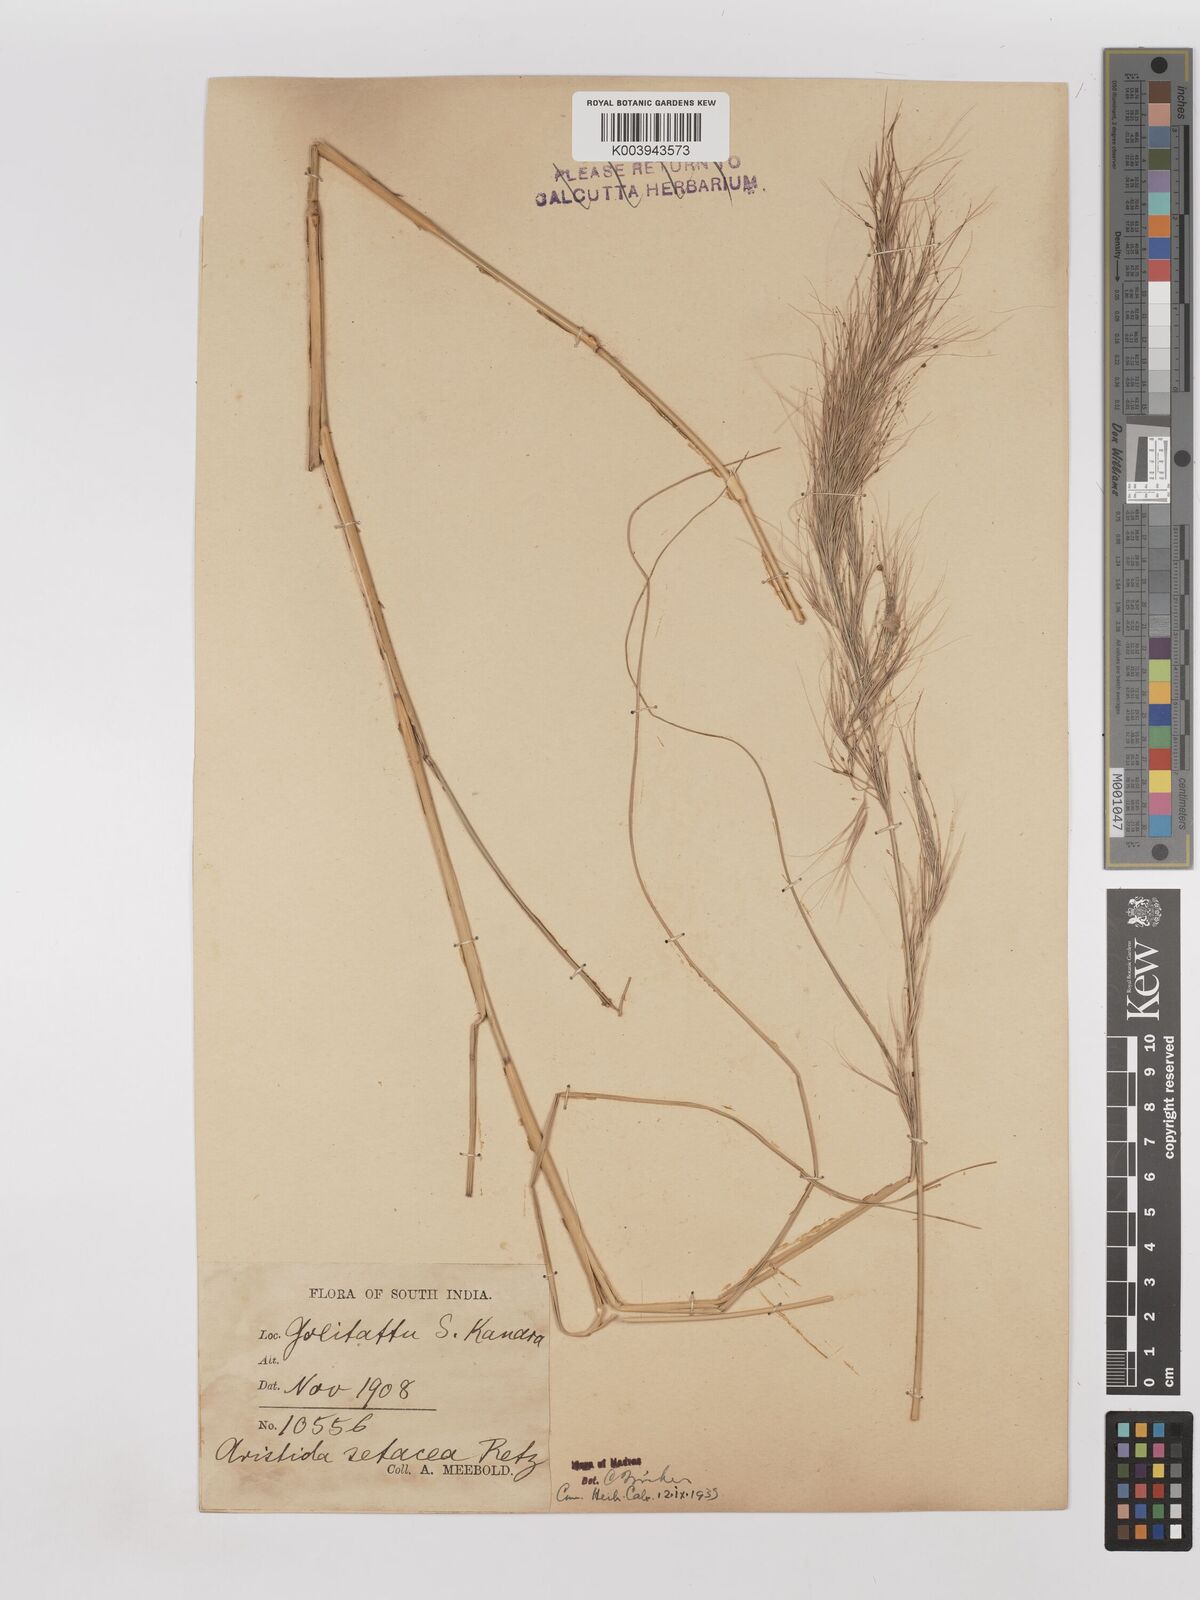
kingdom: Plantae
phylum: Tracheophyta
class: Liliopsida
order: Poales
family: Poaceae
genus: Aristida
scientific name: Aristida setacea
